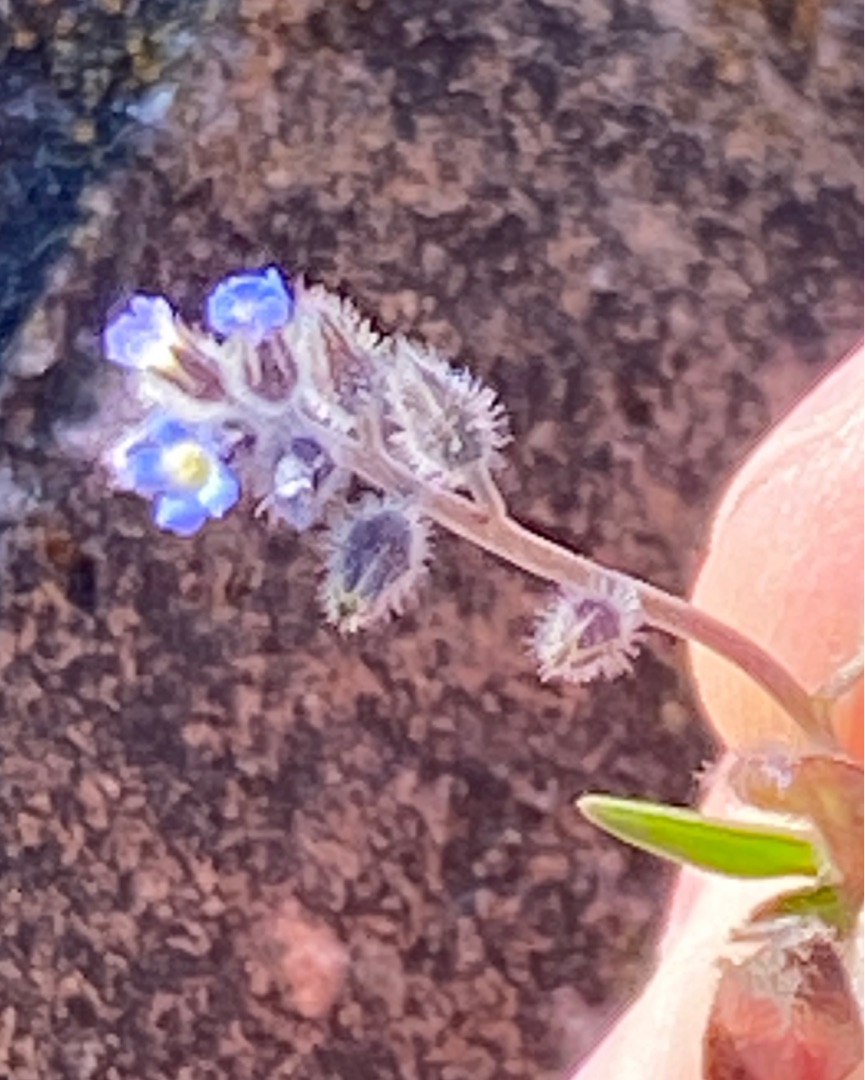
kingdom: Plantae
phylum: Tracheophyta
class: Magnoliopsida
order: Boraginales
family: Boraginaceae
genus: Myosotis
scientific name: Myosotis ramosissima
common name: Bakke-forglemmigej
